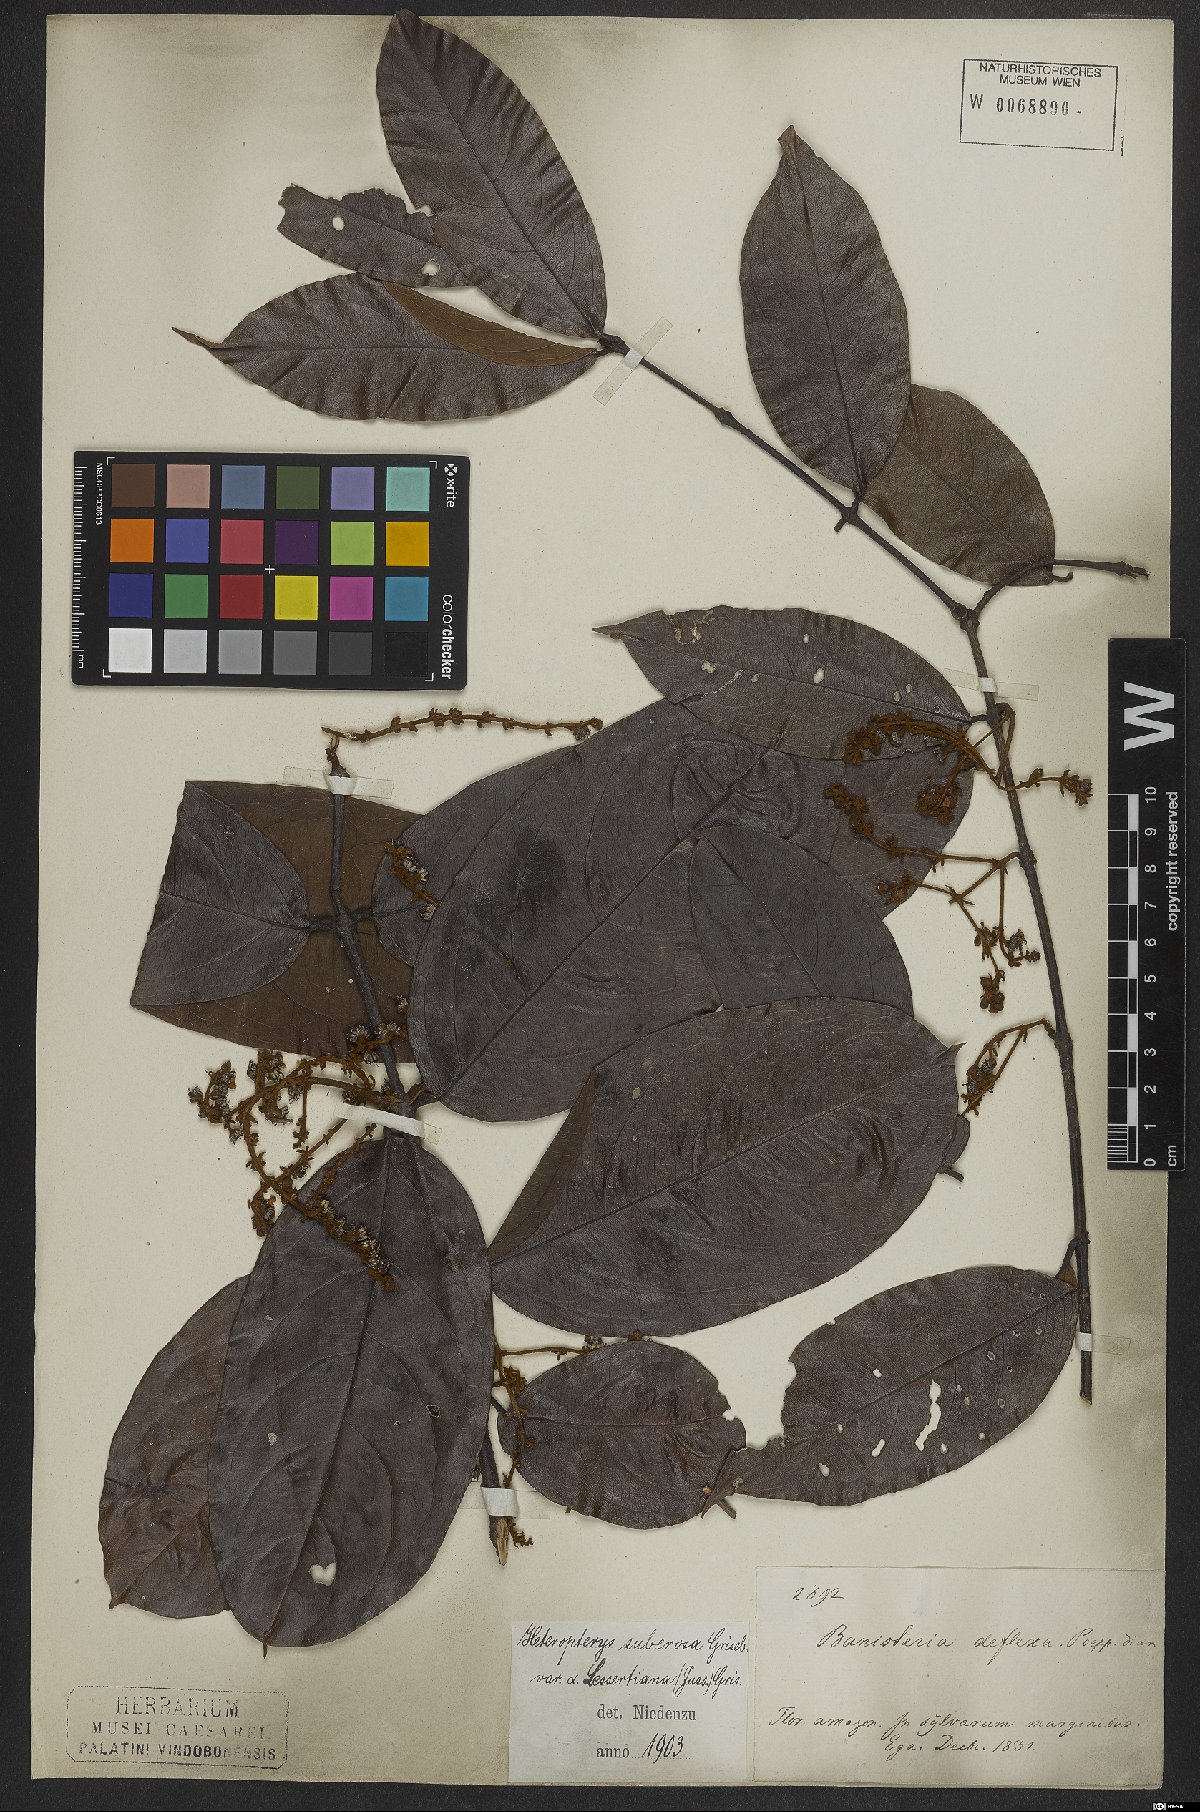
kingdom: Plantae
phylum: Tracheophyta
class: Magnoliopsida
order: Malpighiales
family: Malpighiaceae
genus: Heteropterys
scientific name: Heteropterys nervosa
